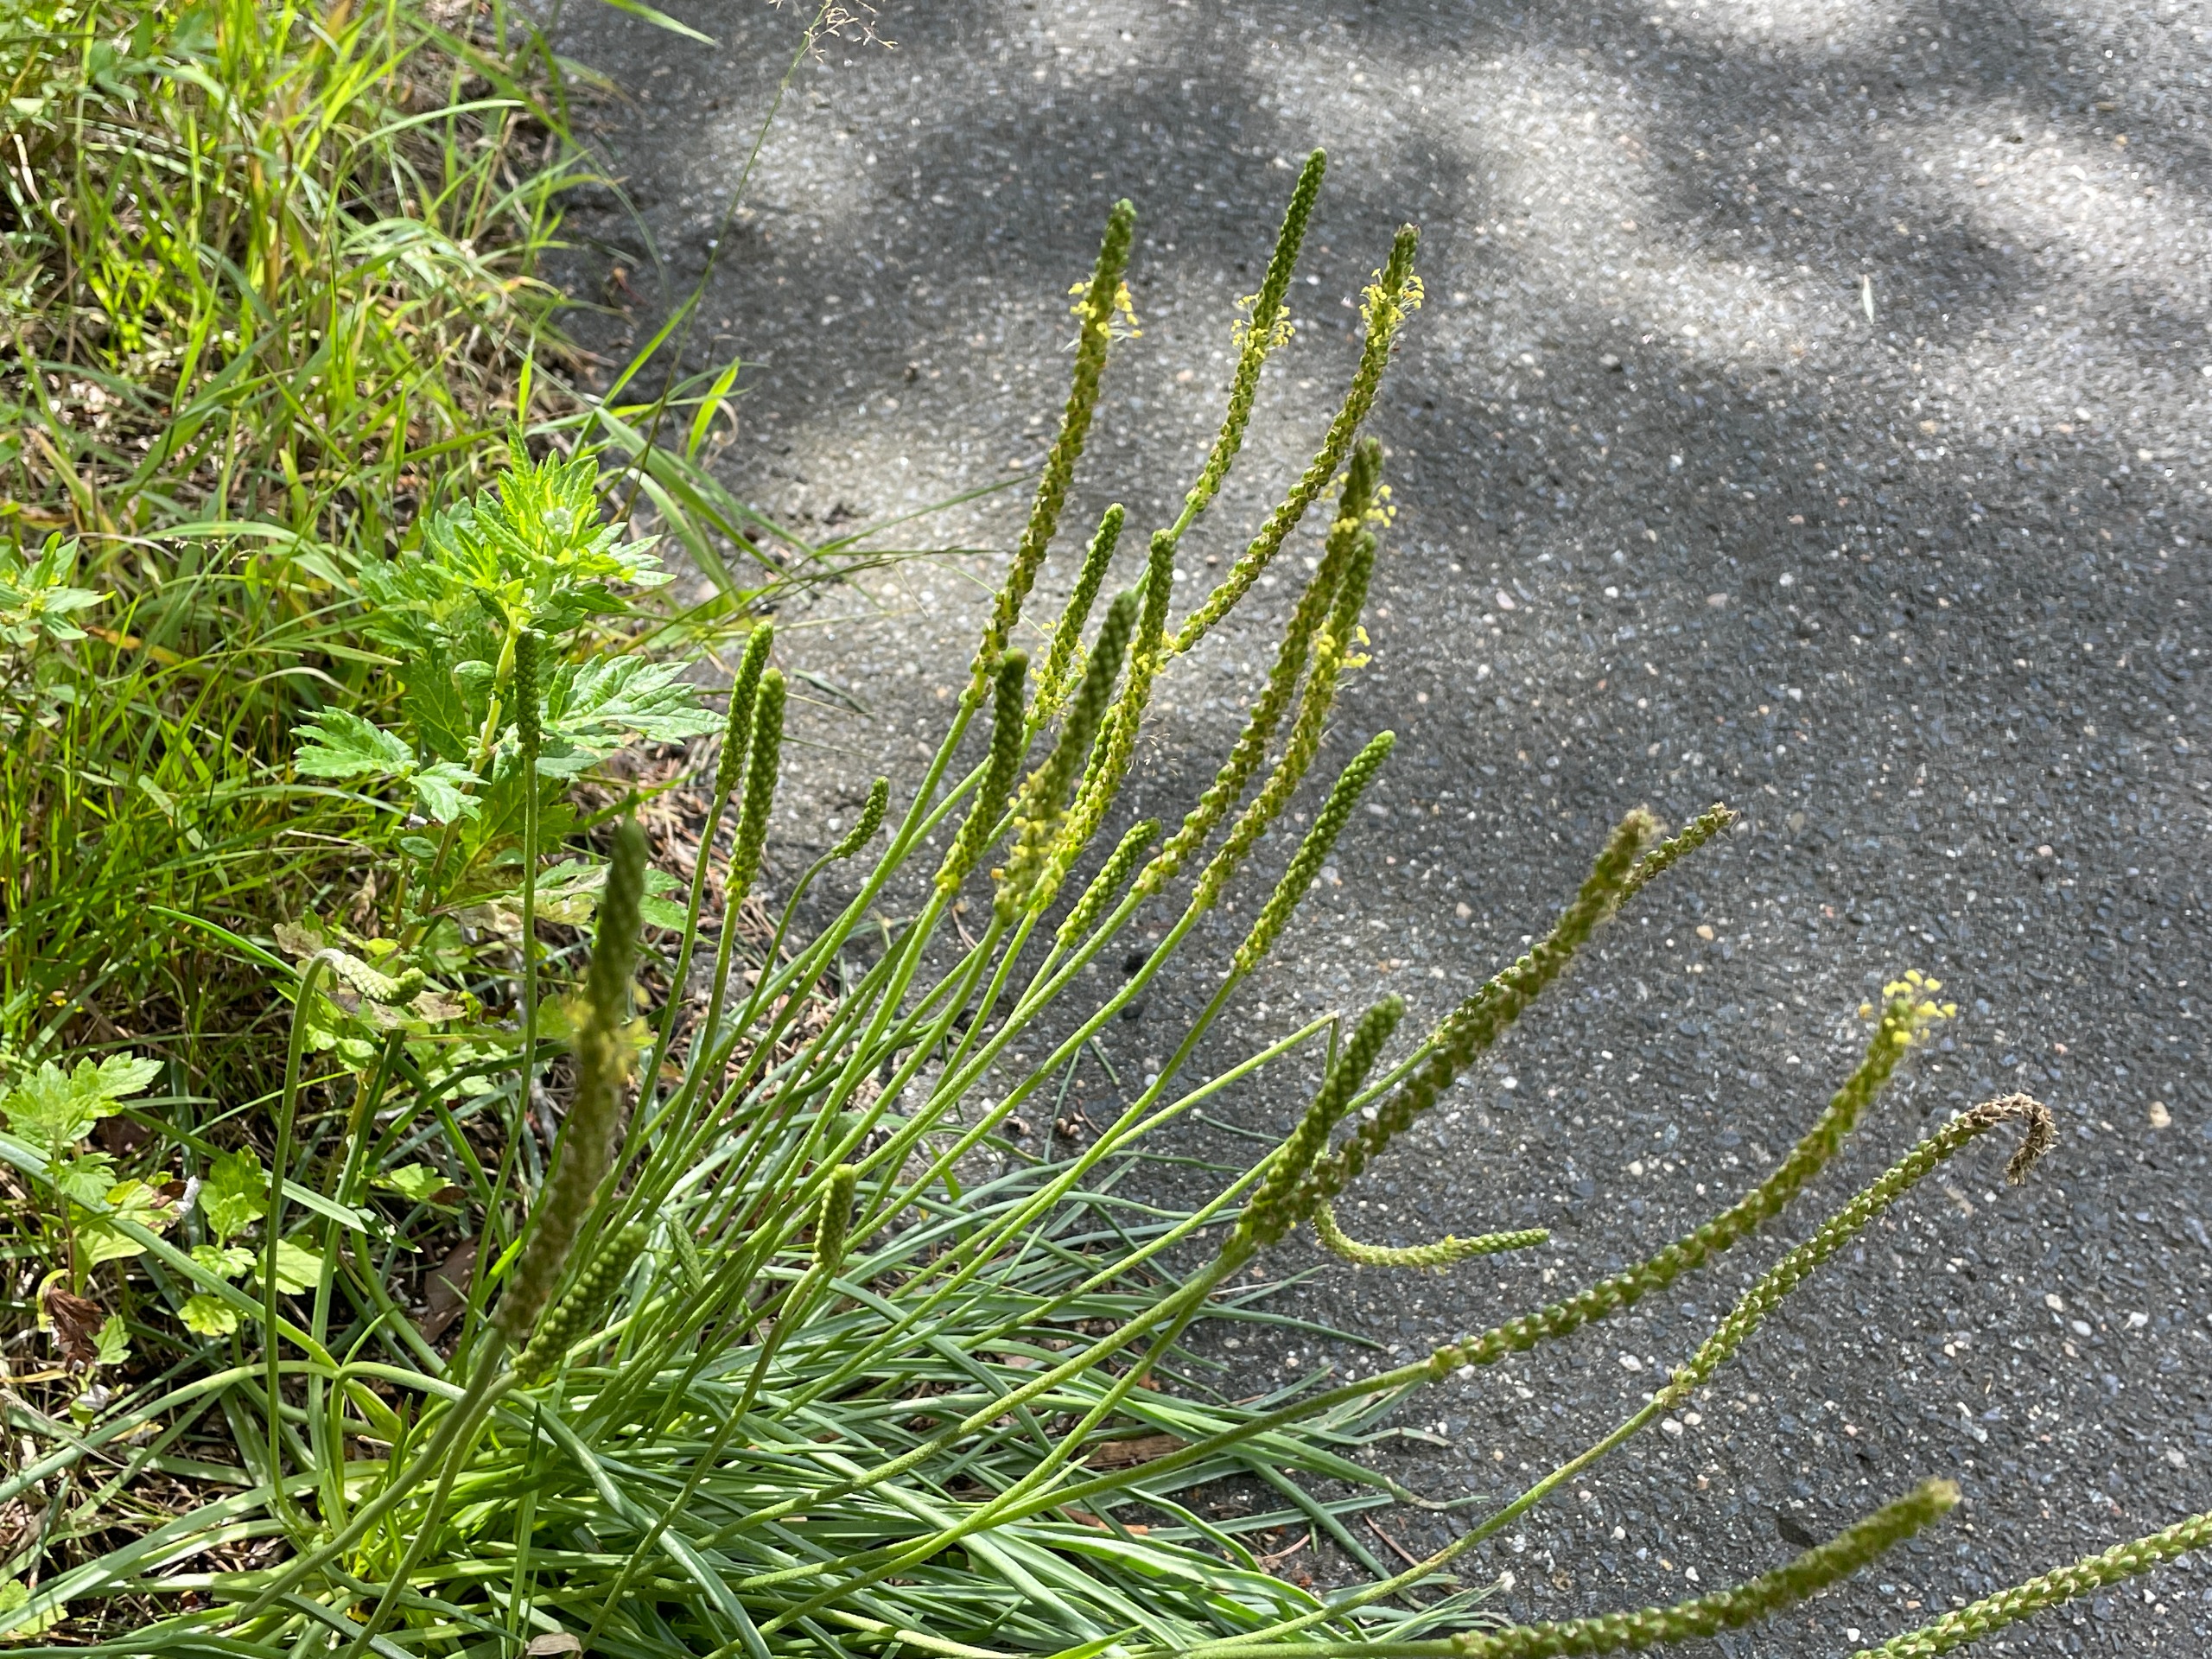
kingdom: Plantae
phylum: Tracheophyta
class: Magnoliopsida
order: Lamiales
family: Plantaginaceae
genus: Plantago
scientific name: Plantago maritima
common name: Strand-vejbred
